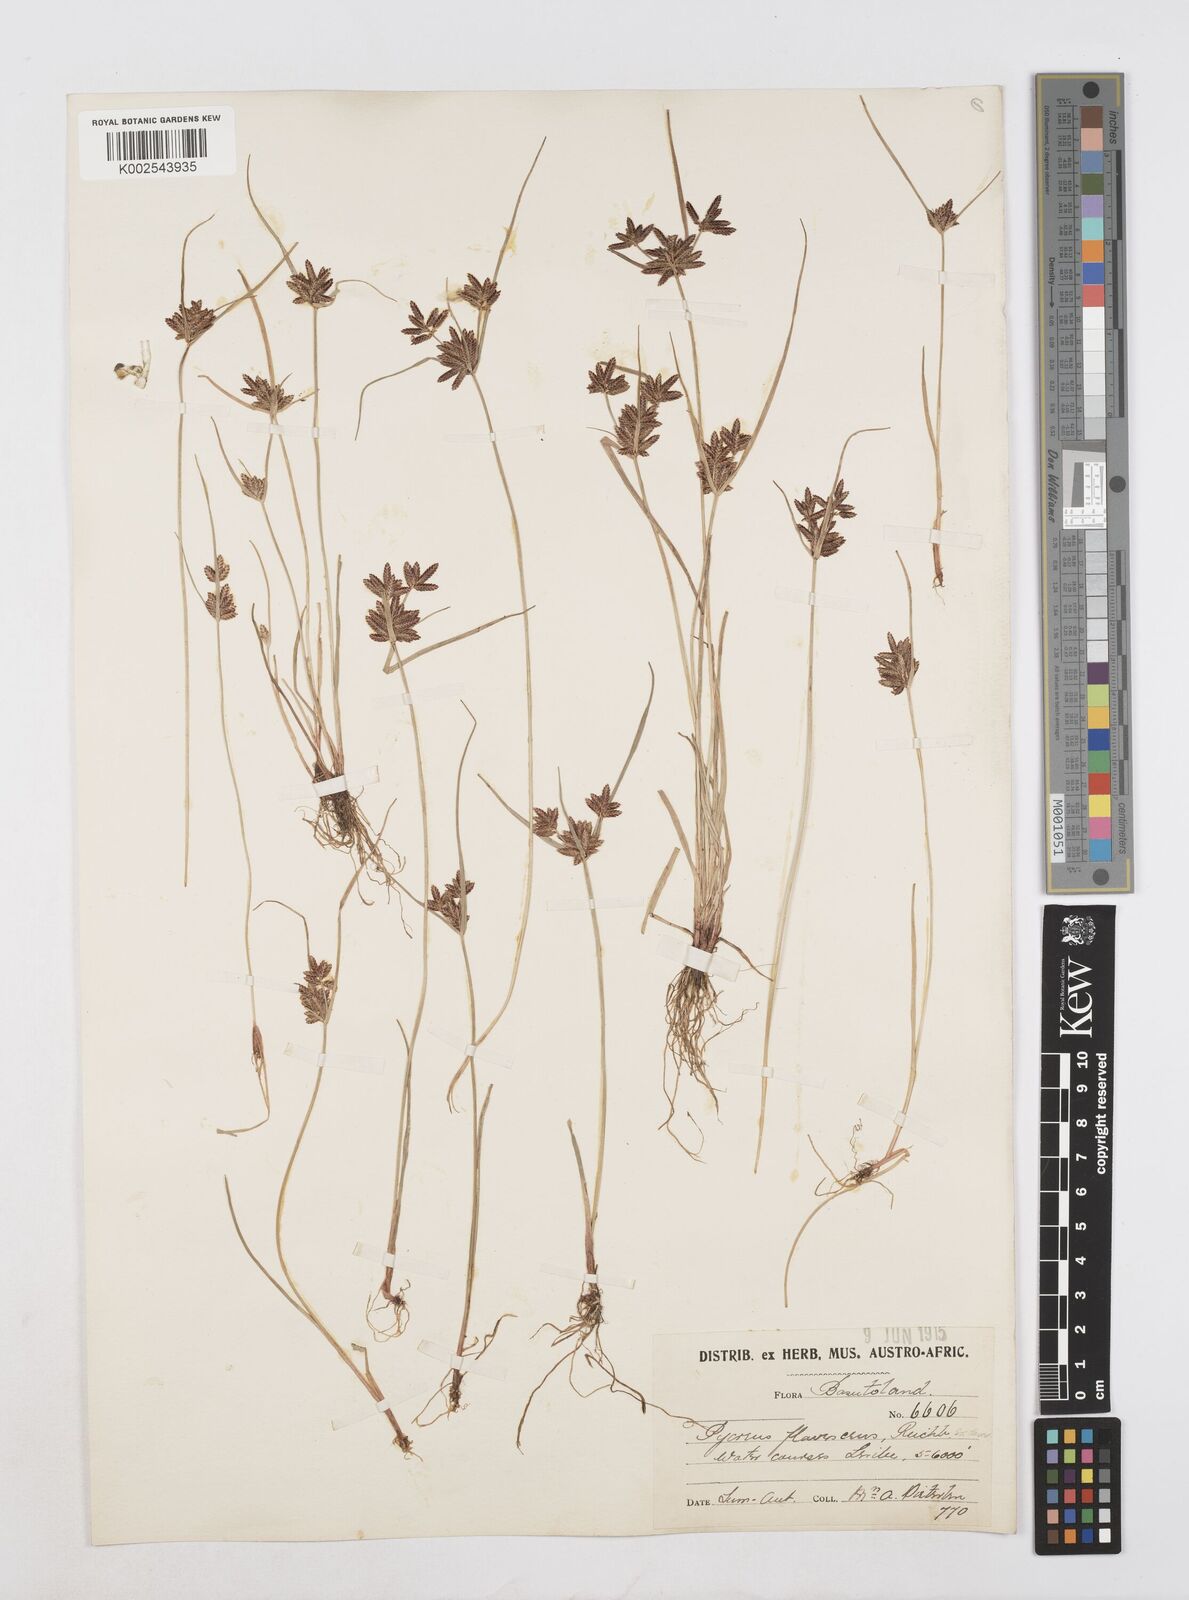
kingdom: Plantae
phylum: Tracheophyta
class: Liliopsida
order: Poales
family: Cyperaceae
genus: Cyperus
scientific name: Cyperus flavescens
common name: Yellow galingale
